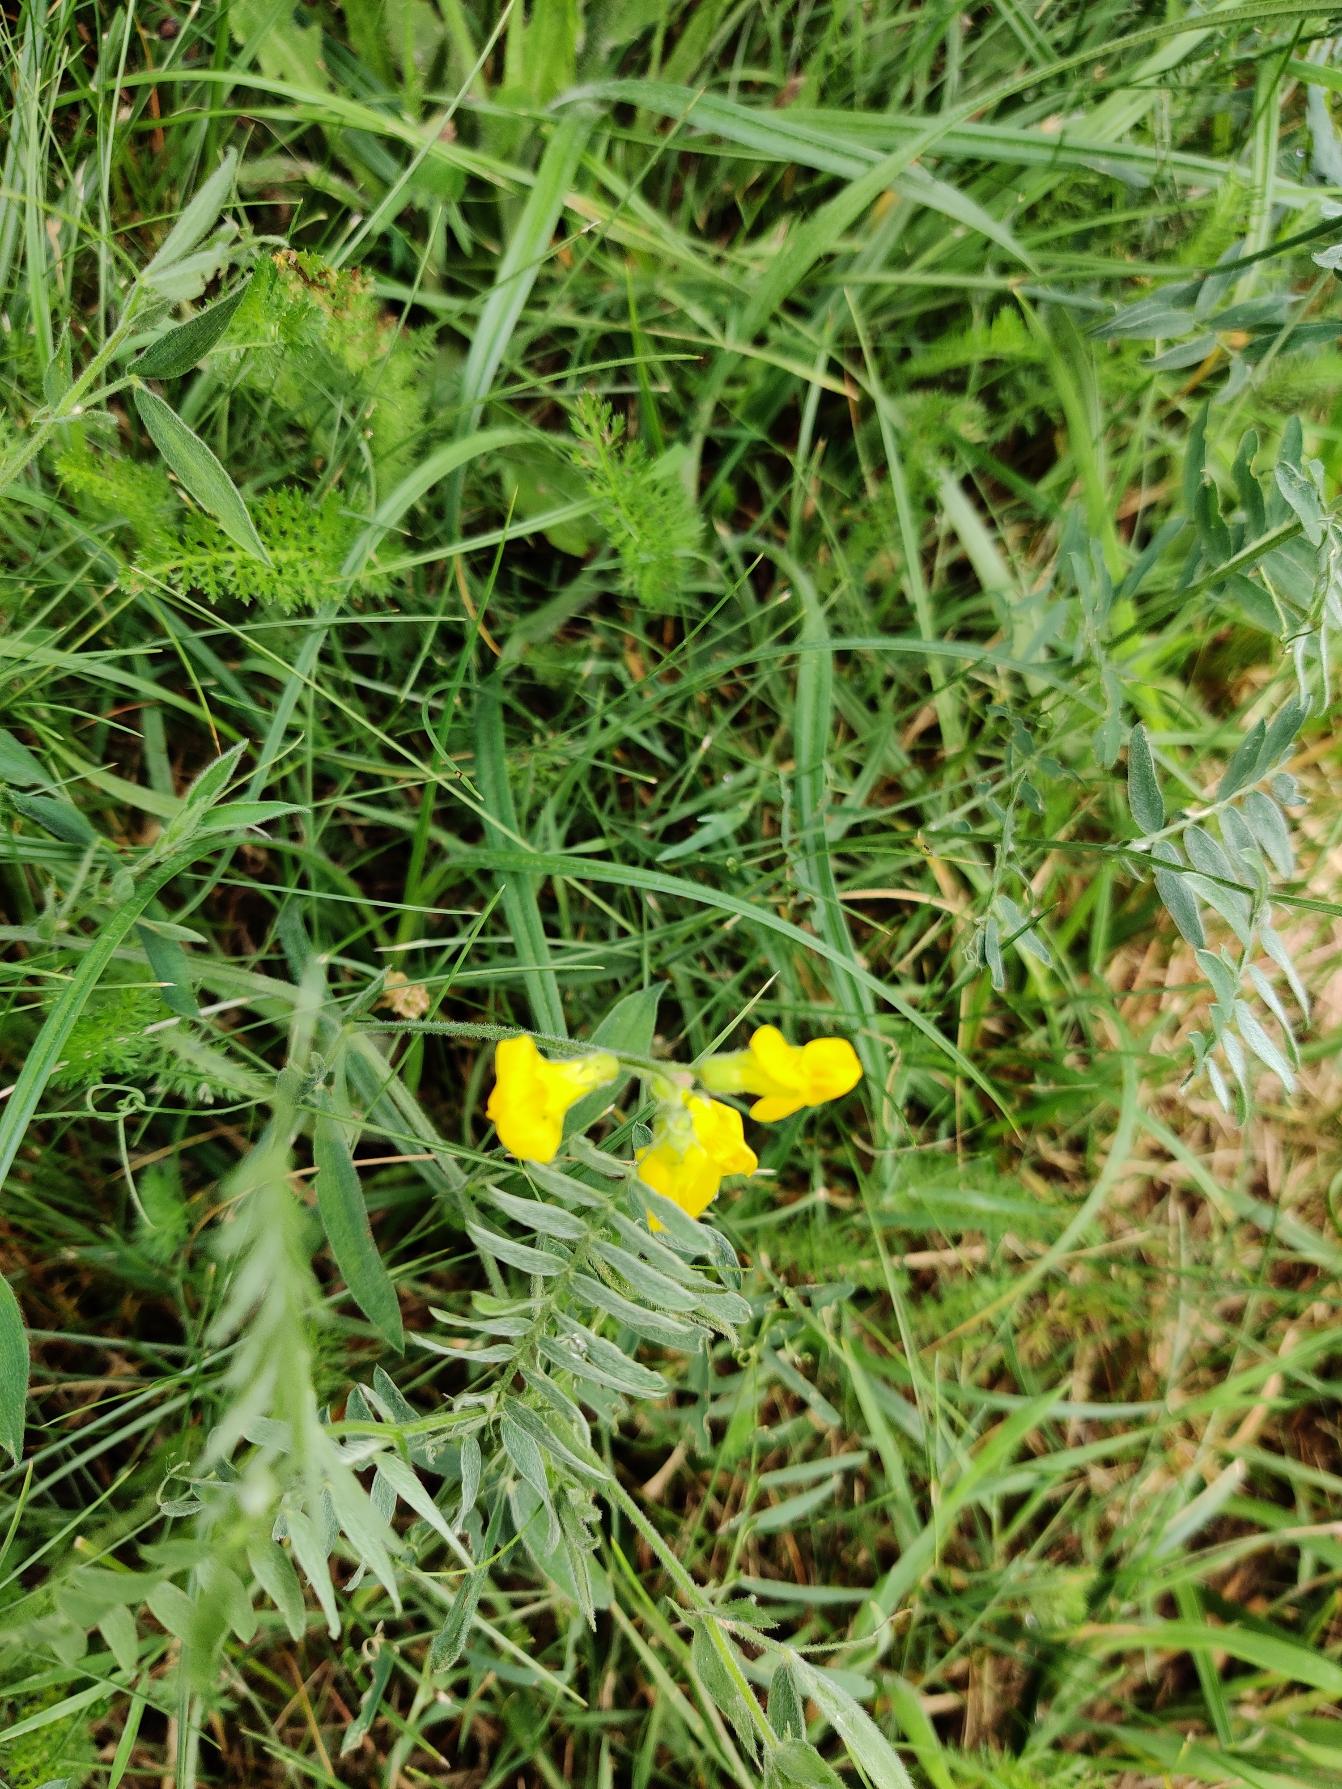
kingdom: Plantae
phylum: Tracheophyta
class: Magnoliopsida
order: Fabales
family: Fabaceae
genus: Lathyrus
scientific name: Lathyrus pratensis
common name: Gul fladbælg
